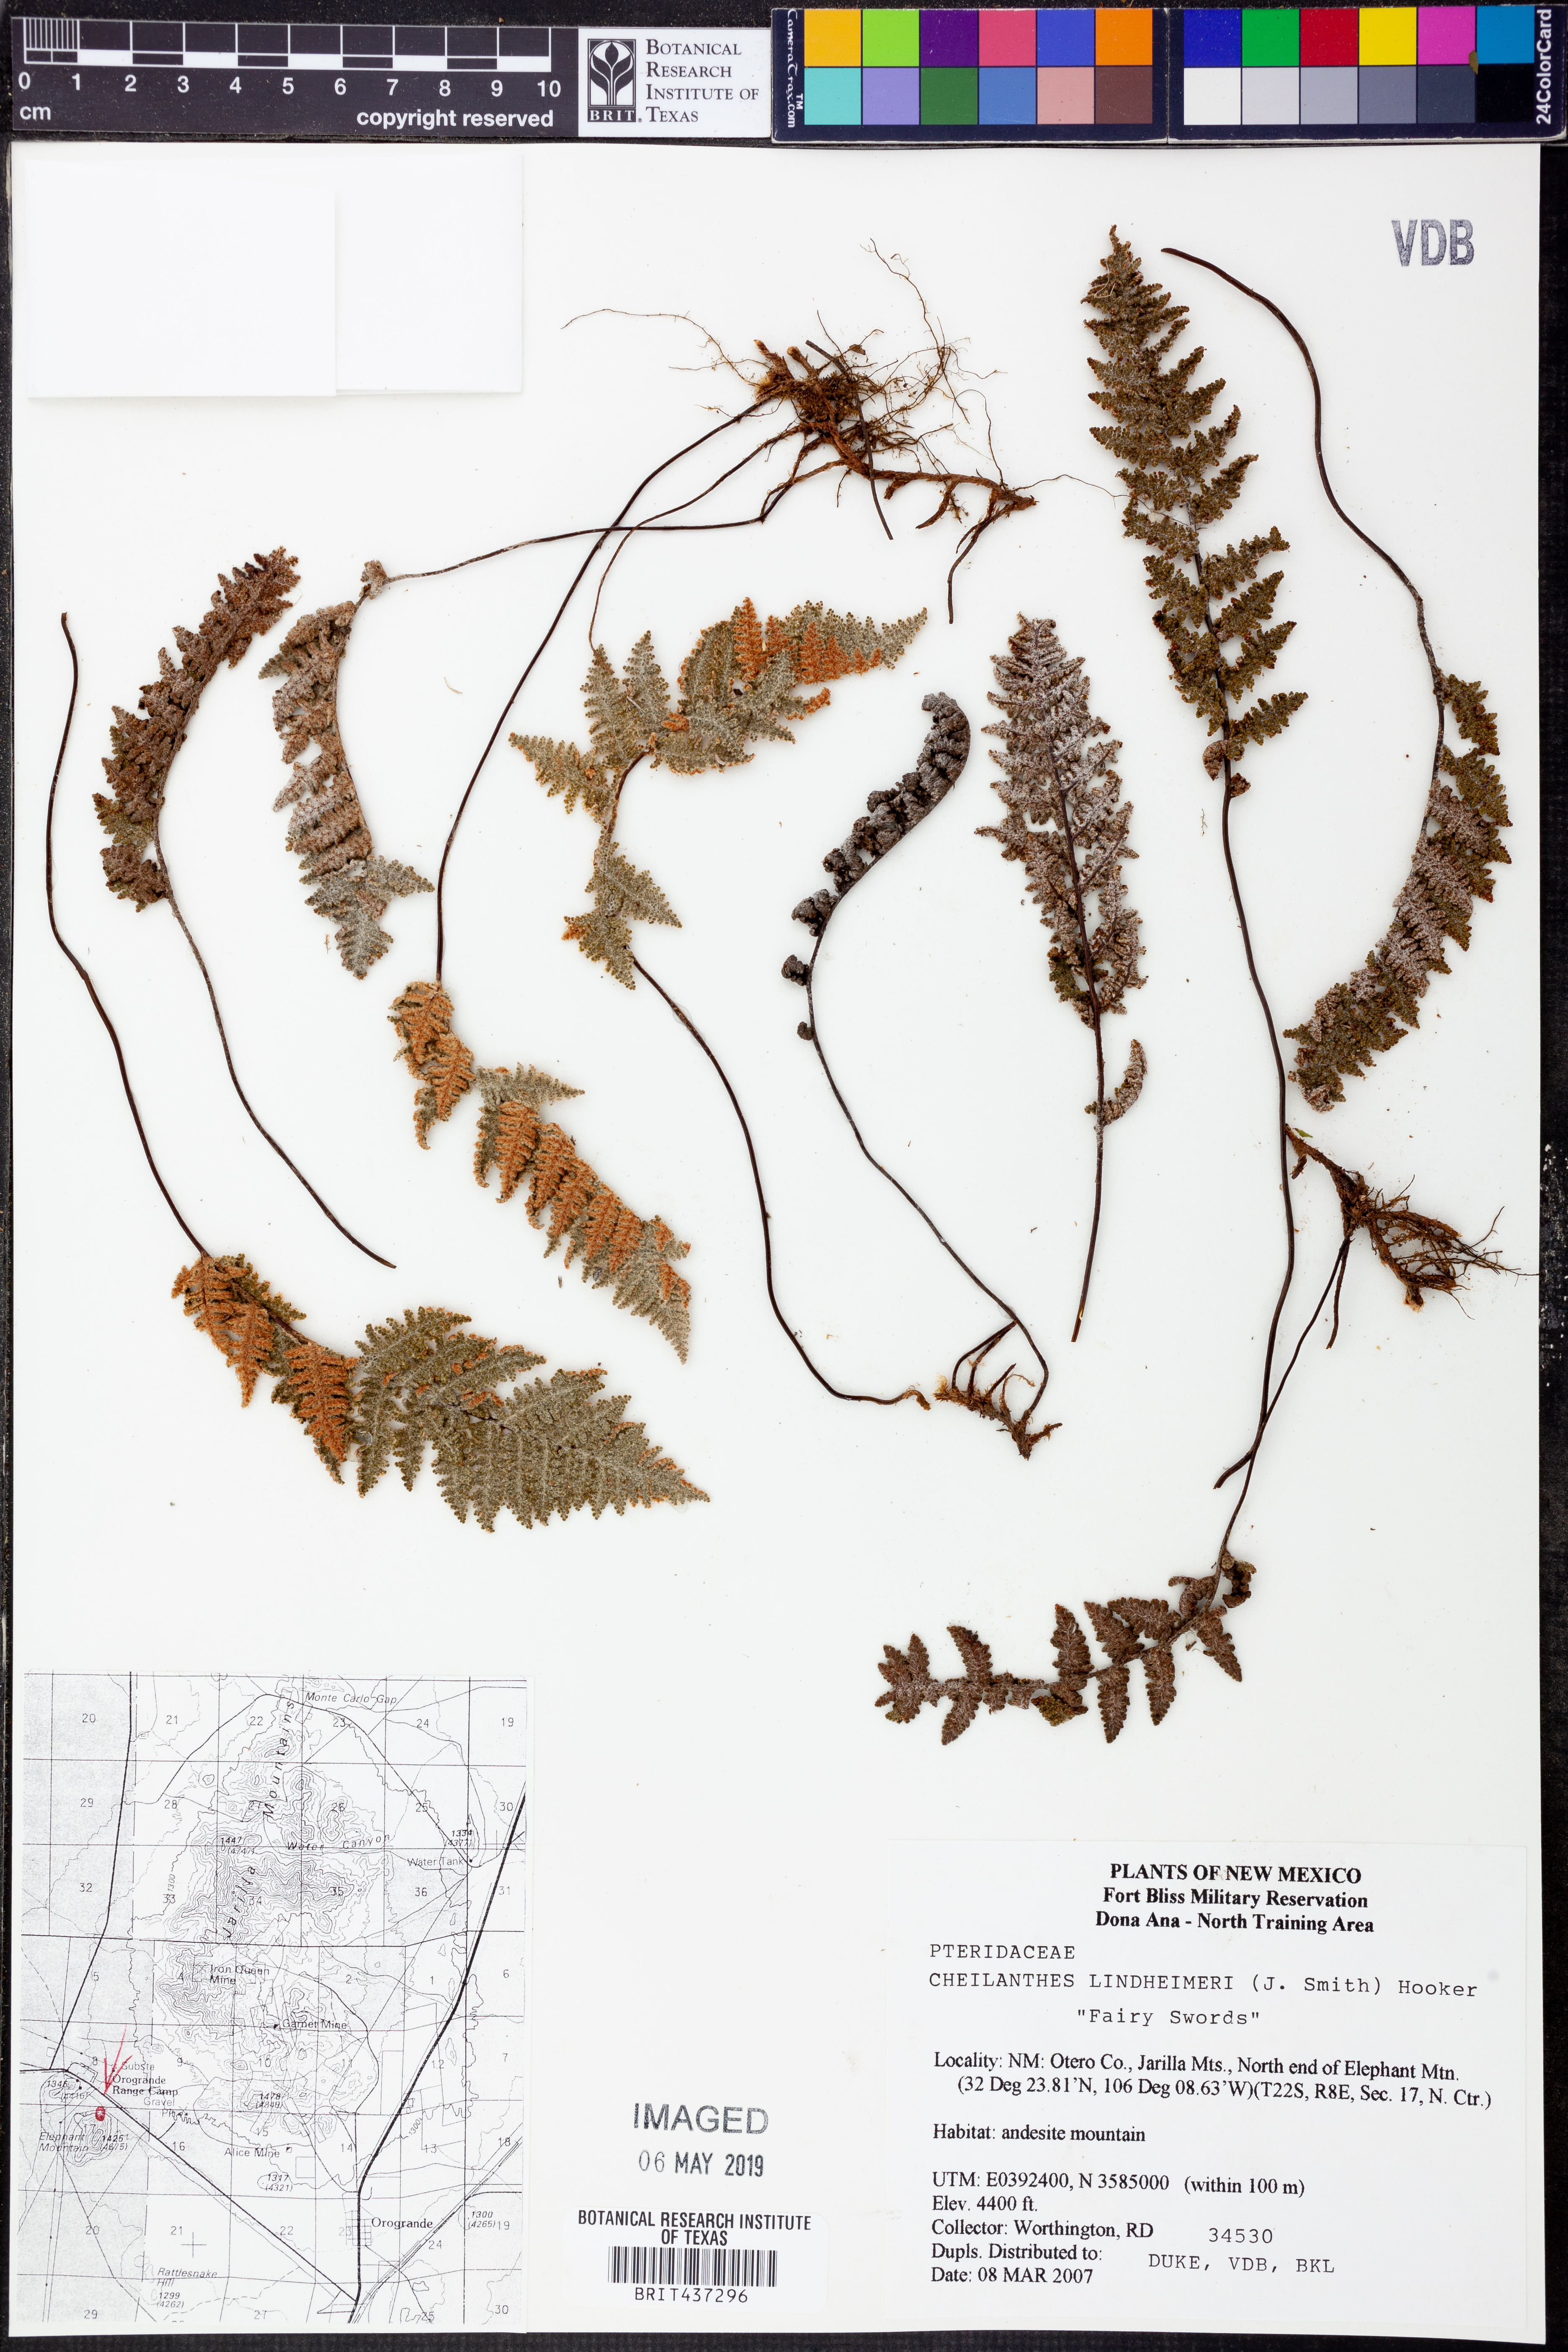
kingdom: Plantae
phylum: Tracheophyta
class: Polypodiopsida
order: Polypodiales
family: Pteridaceae
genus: Myriopteris
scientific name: Myriopteris lindheimeri
